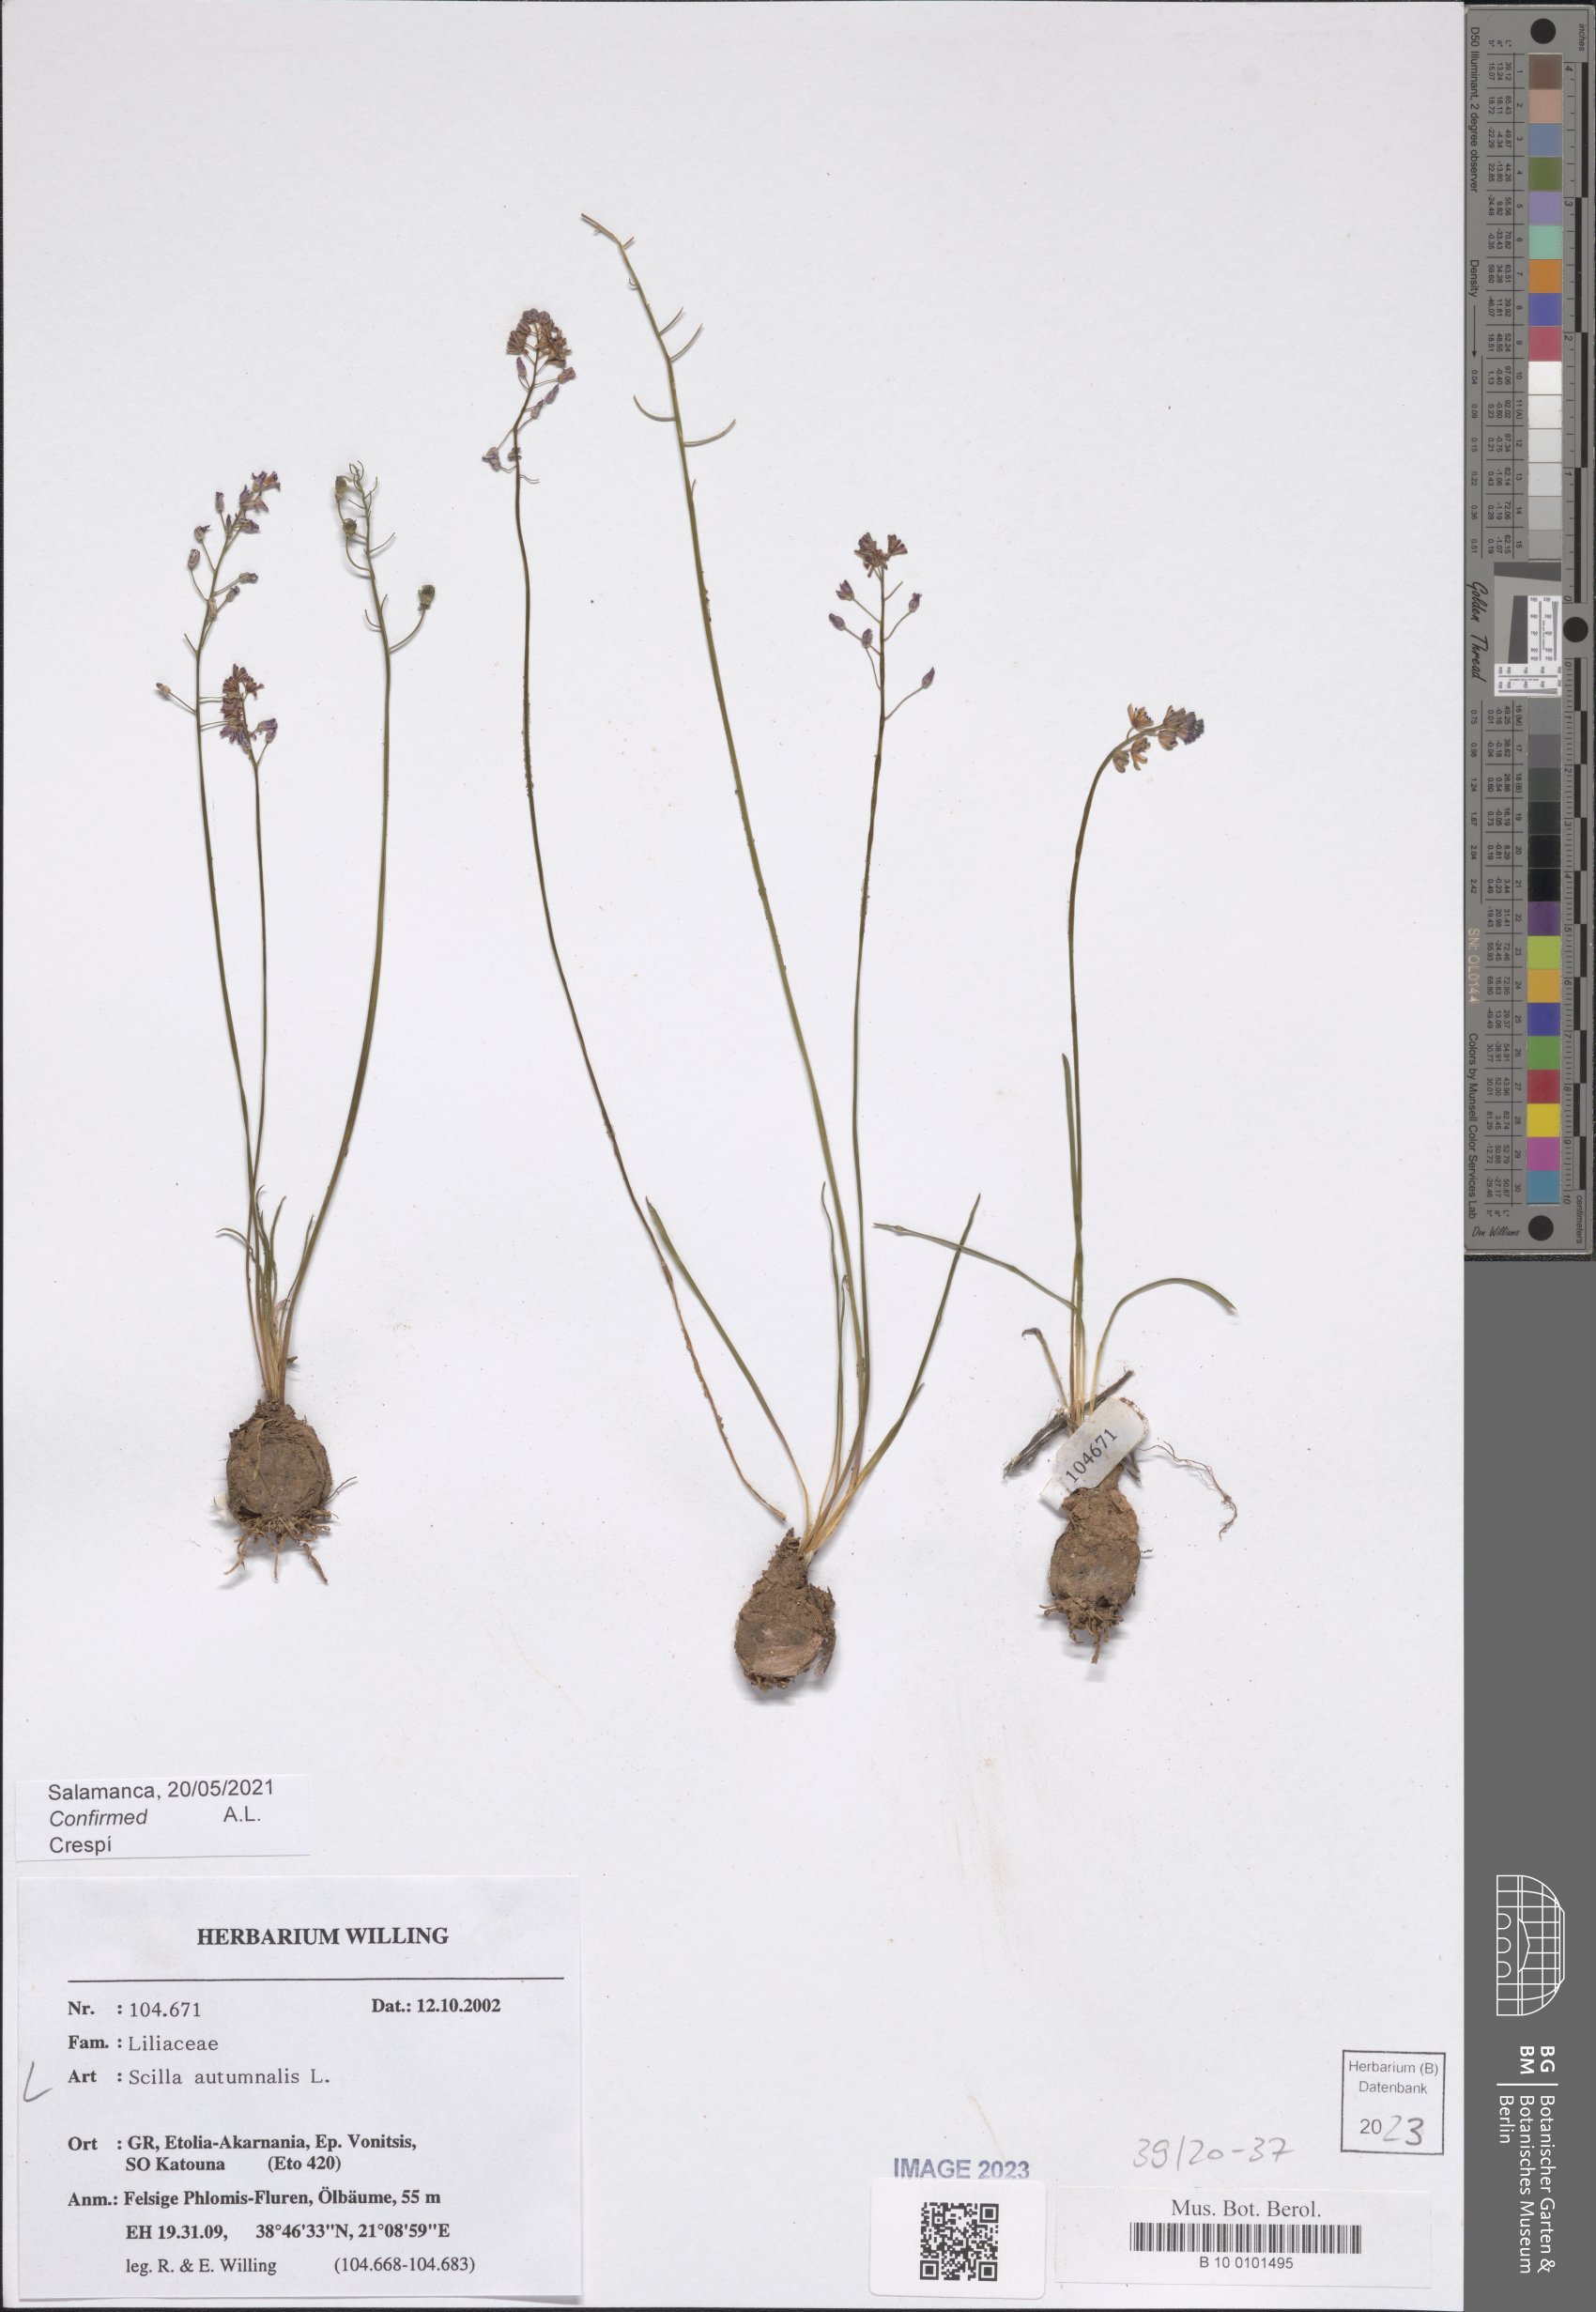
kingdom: Plantae
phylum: Tracheophyta
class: Liliopsida
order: Asparagales
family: Asparagaceae
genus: Prospero
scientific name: Prospero autumnale
